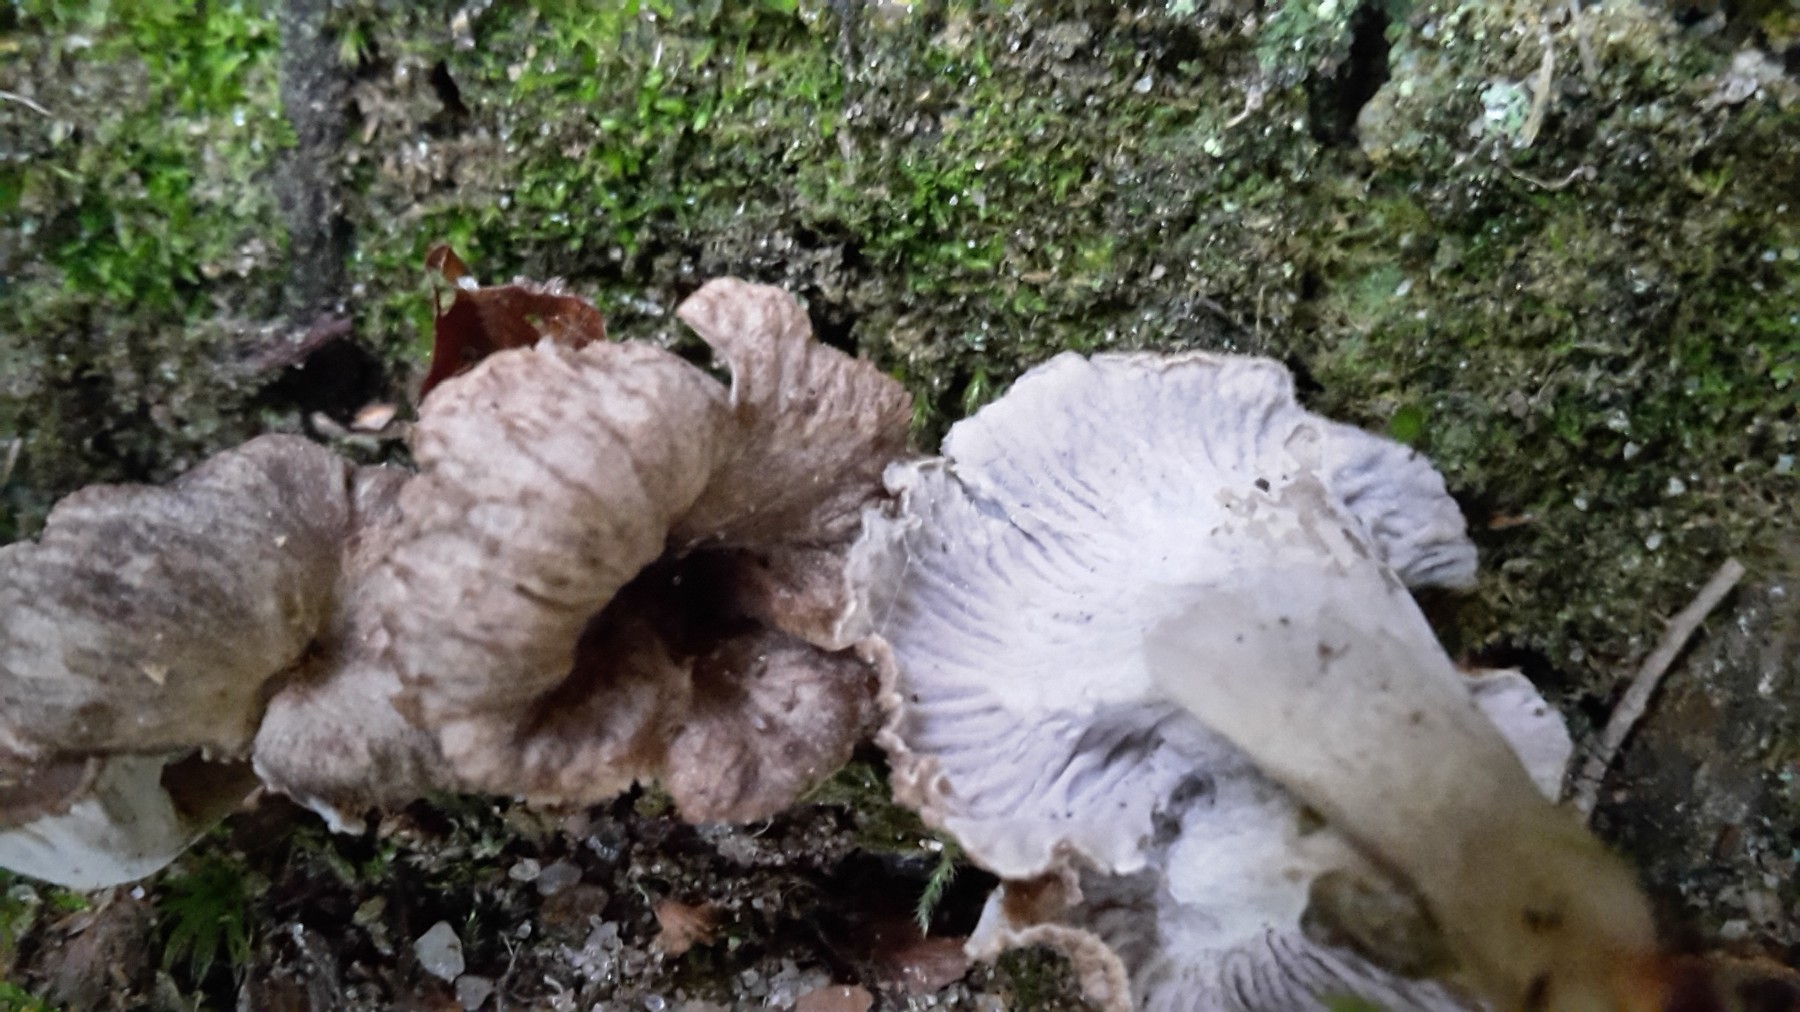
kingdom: Fungi
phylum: Basidiomycota
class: Agaricomycetes
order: Cantharellales
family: Hydnaceae
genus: Craterellus
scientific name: Craterellus undulatus
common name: liden kantarel
